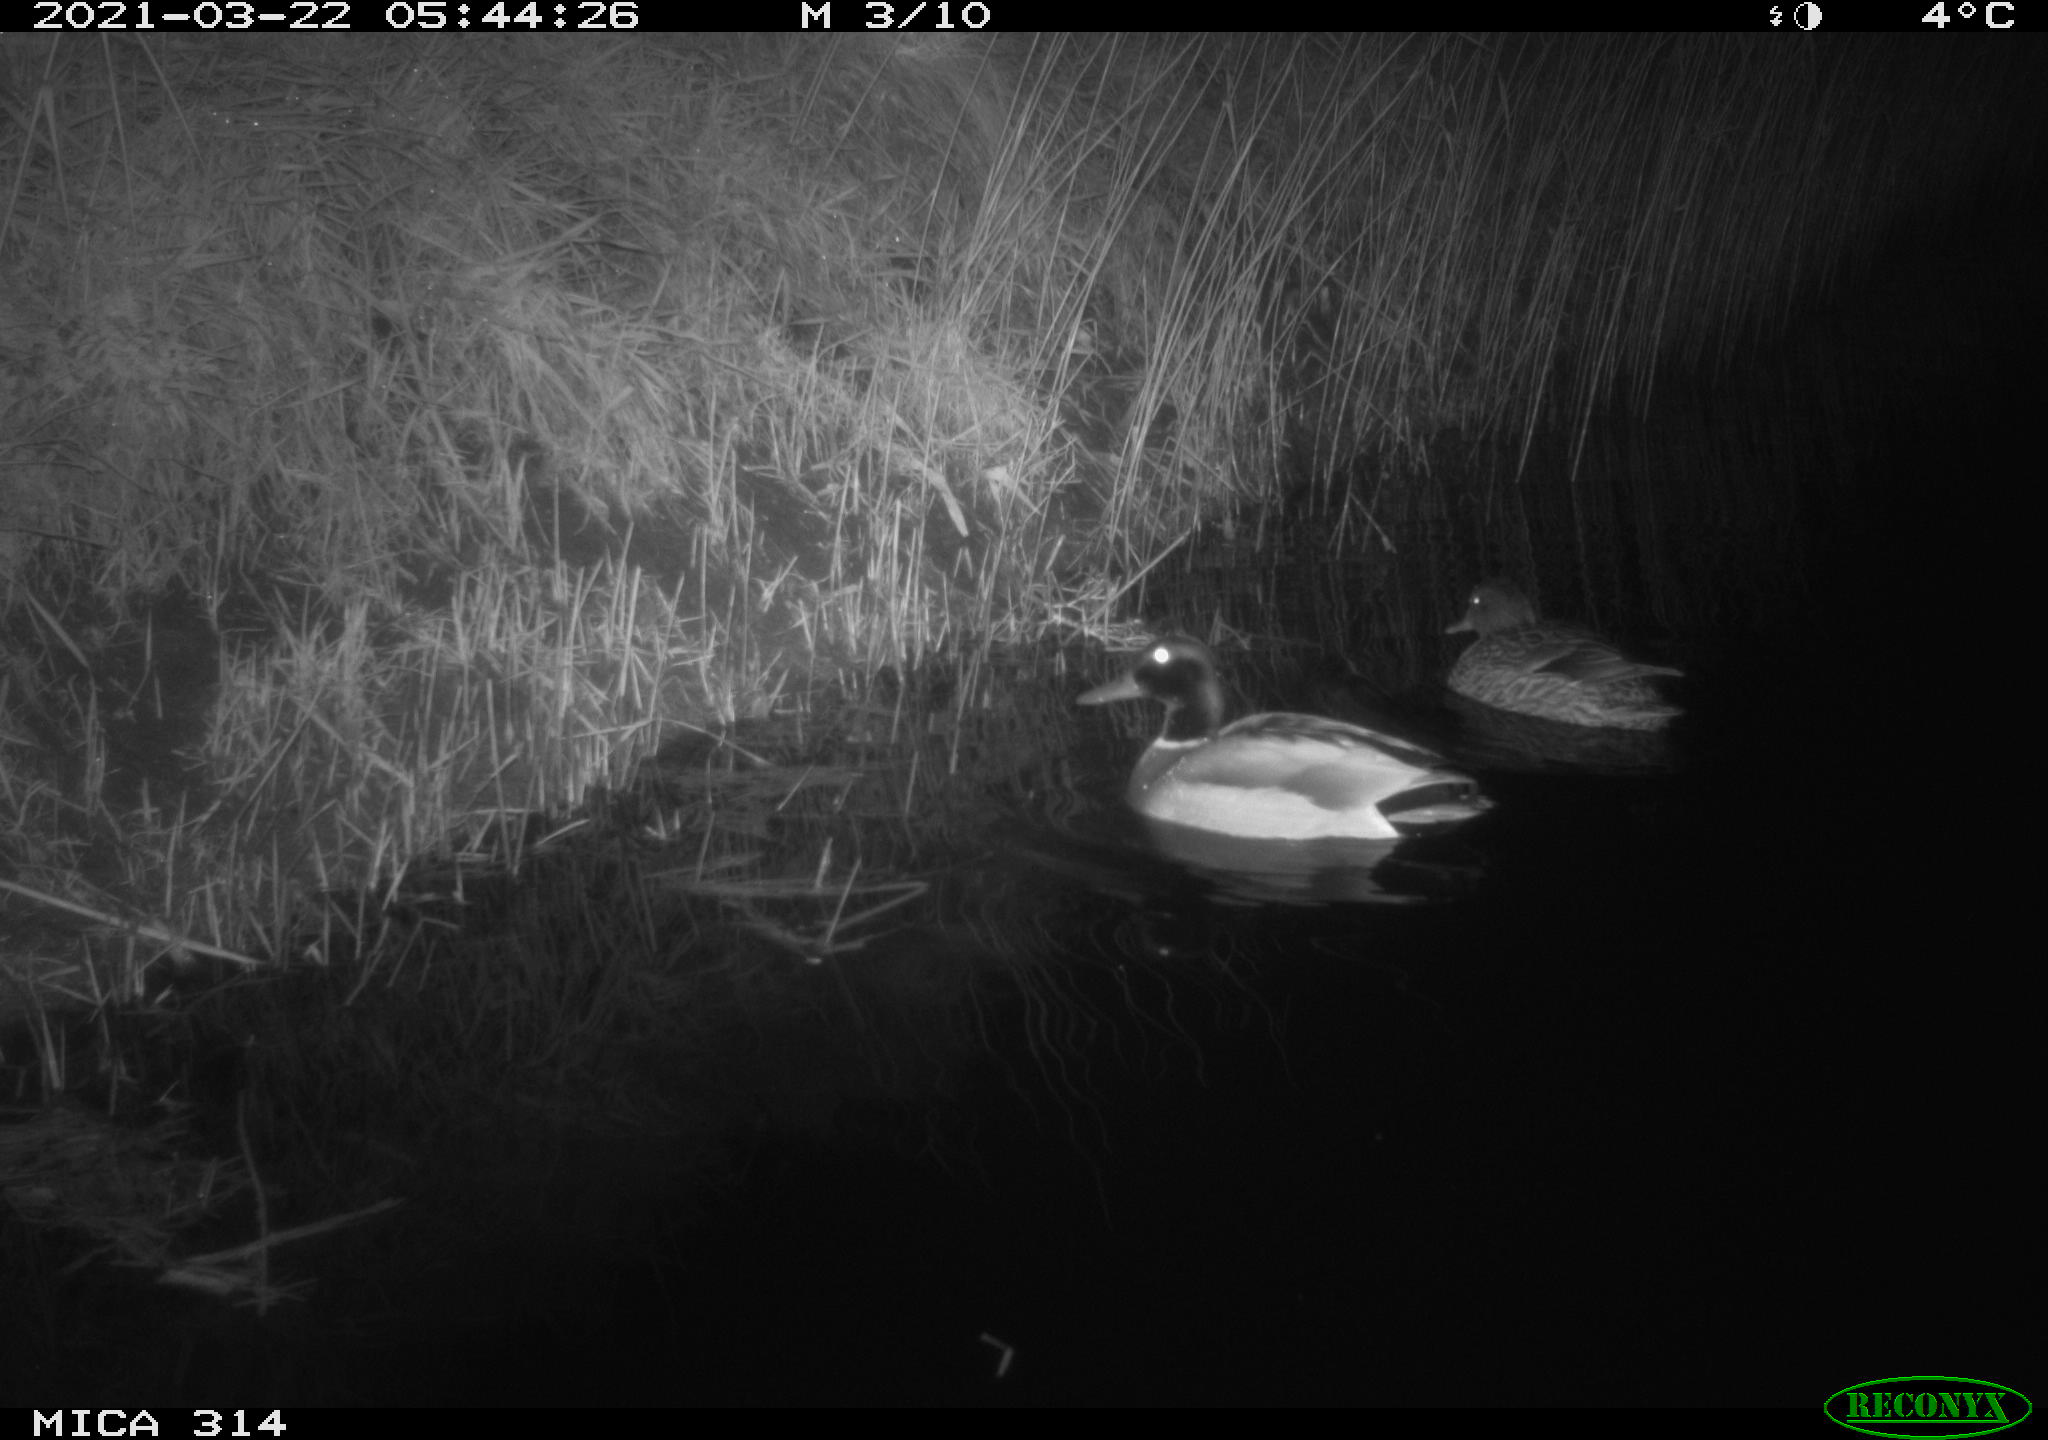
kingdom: Animalia
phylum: Chordata
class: Aves
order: Anseriformes
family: Anatidae
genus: Anas
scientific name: Anas platyrhynchos
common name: Mallard
